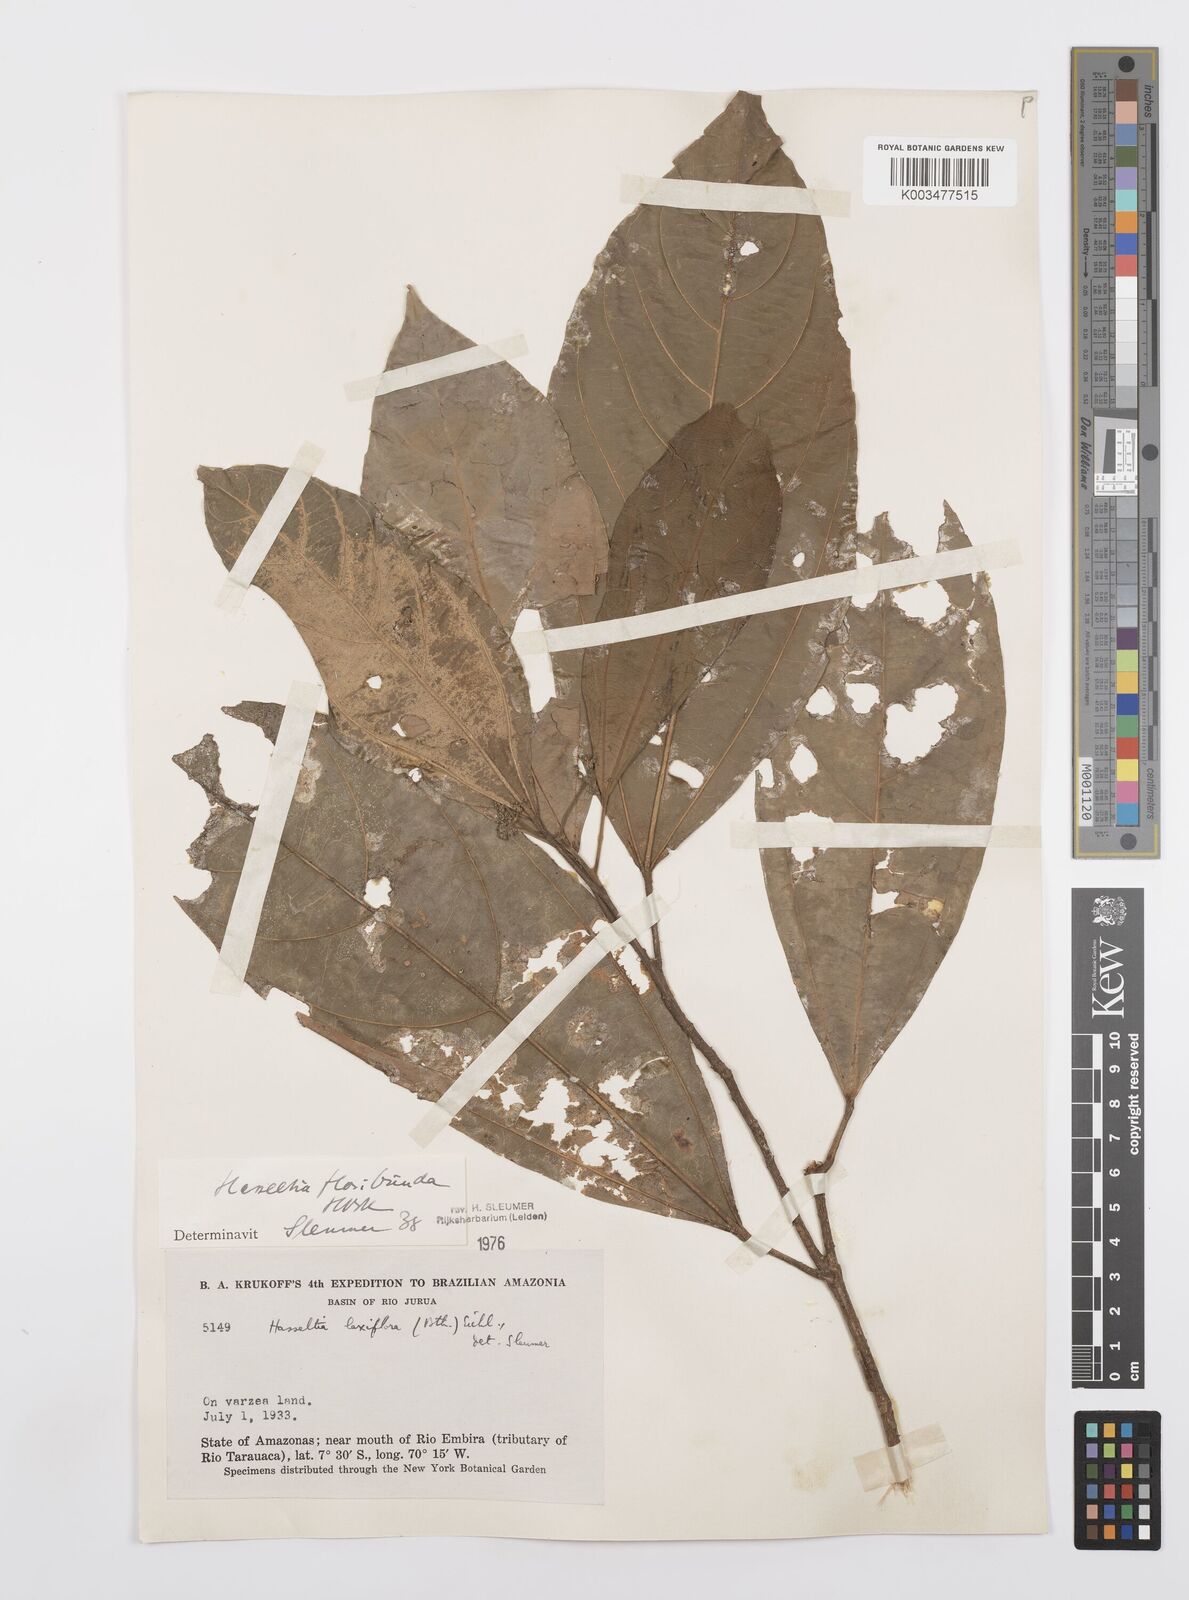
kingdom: Plantae
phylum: Tracheophyta
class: Magnoliopsida
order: Malpighiales
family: Salicaceae
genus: Hasseltia
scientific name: Hasseltia floribunda
